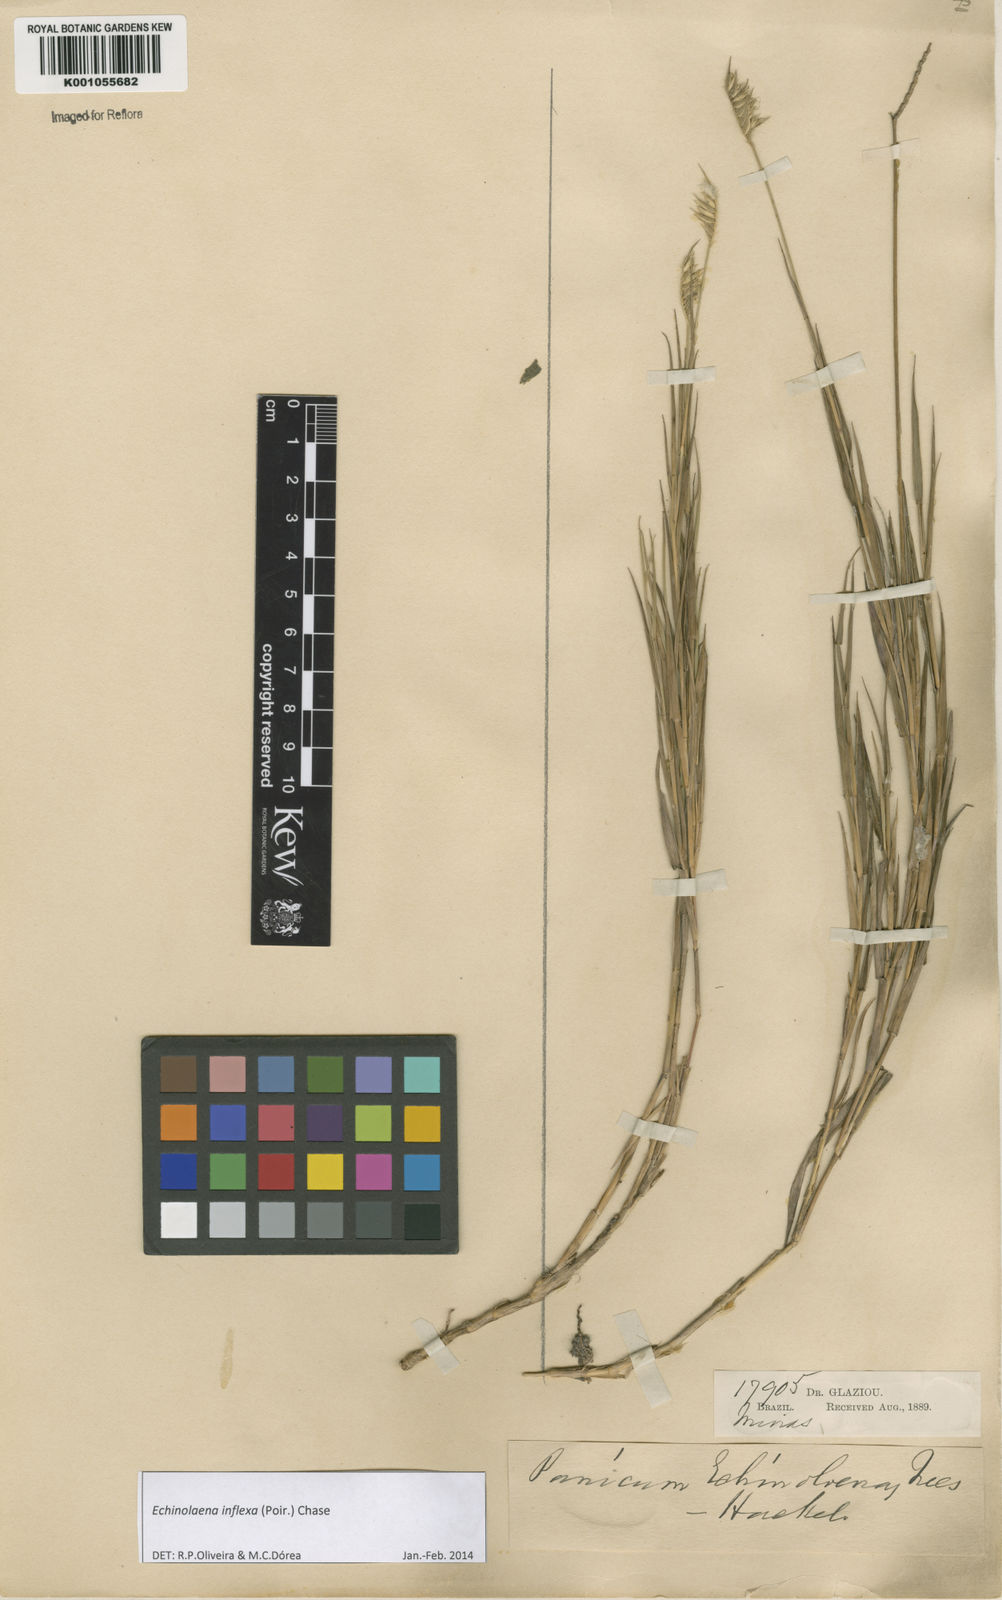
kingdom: Plantae
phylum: Tracheophyta
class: Liliopsida
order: Poales
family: Poaceae
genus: Echinolaena
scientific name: Echinolaena inflexa
